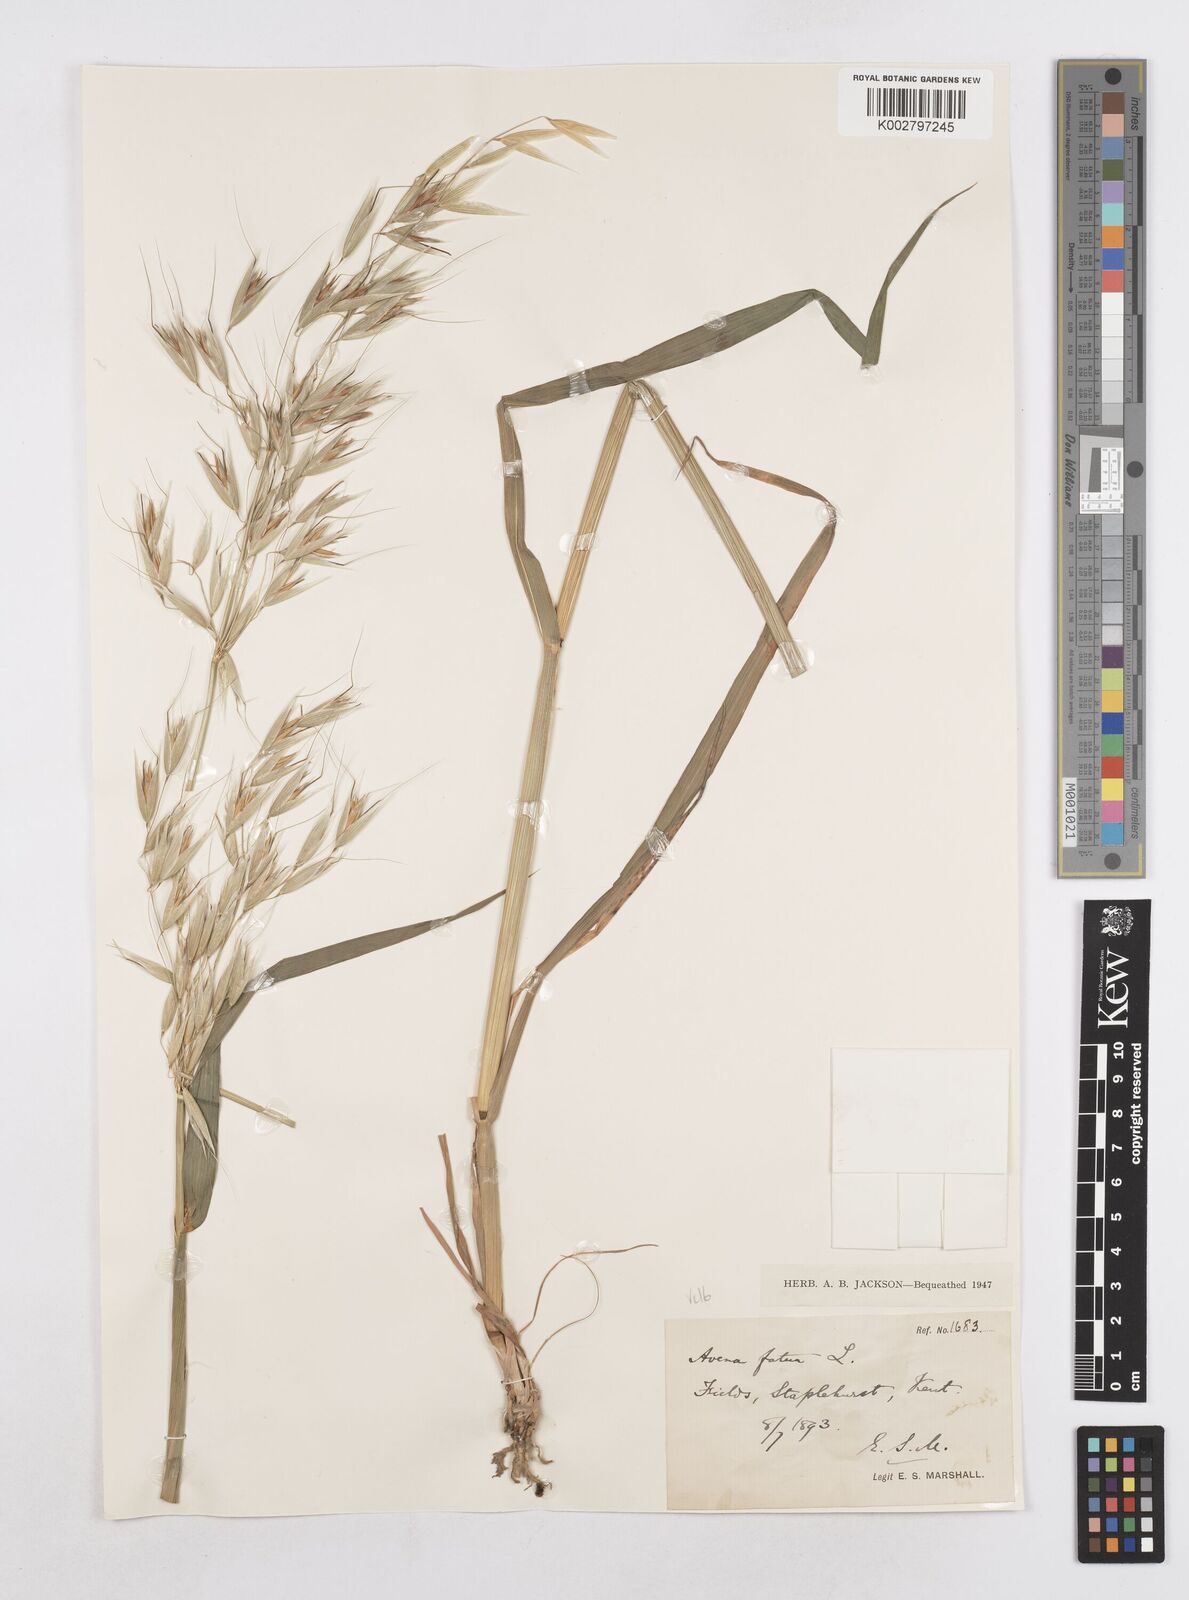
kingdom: Plantae
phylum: Tracheophyta
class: Liliopsida
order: Poales
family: Poaceae
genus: Avena
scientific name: Avena fatua
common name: Wild oat
